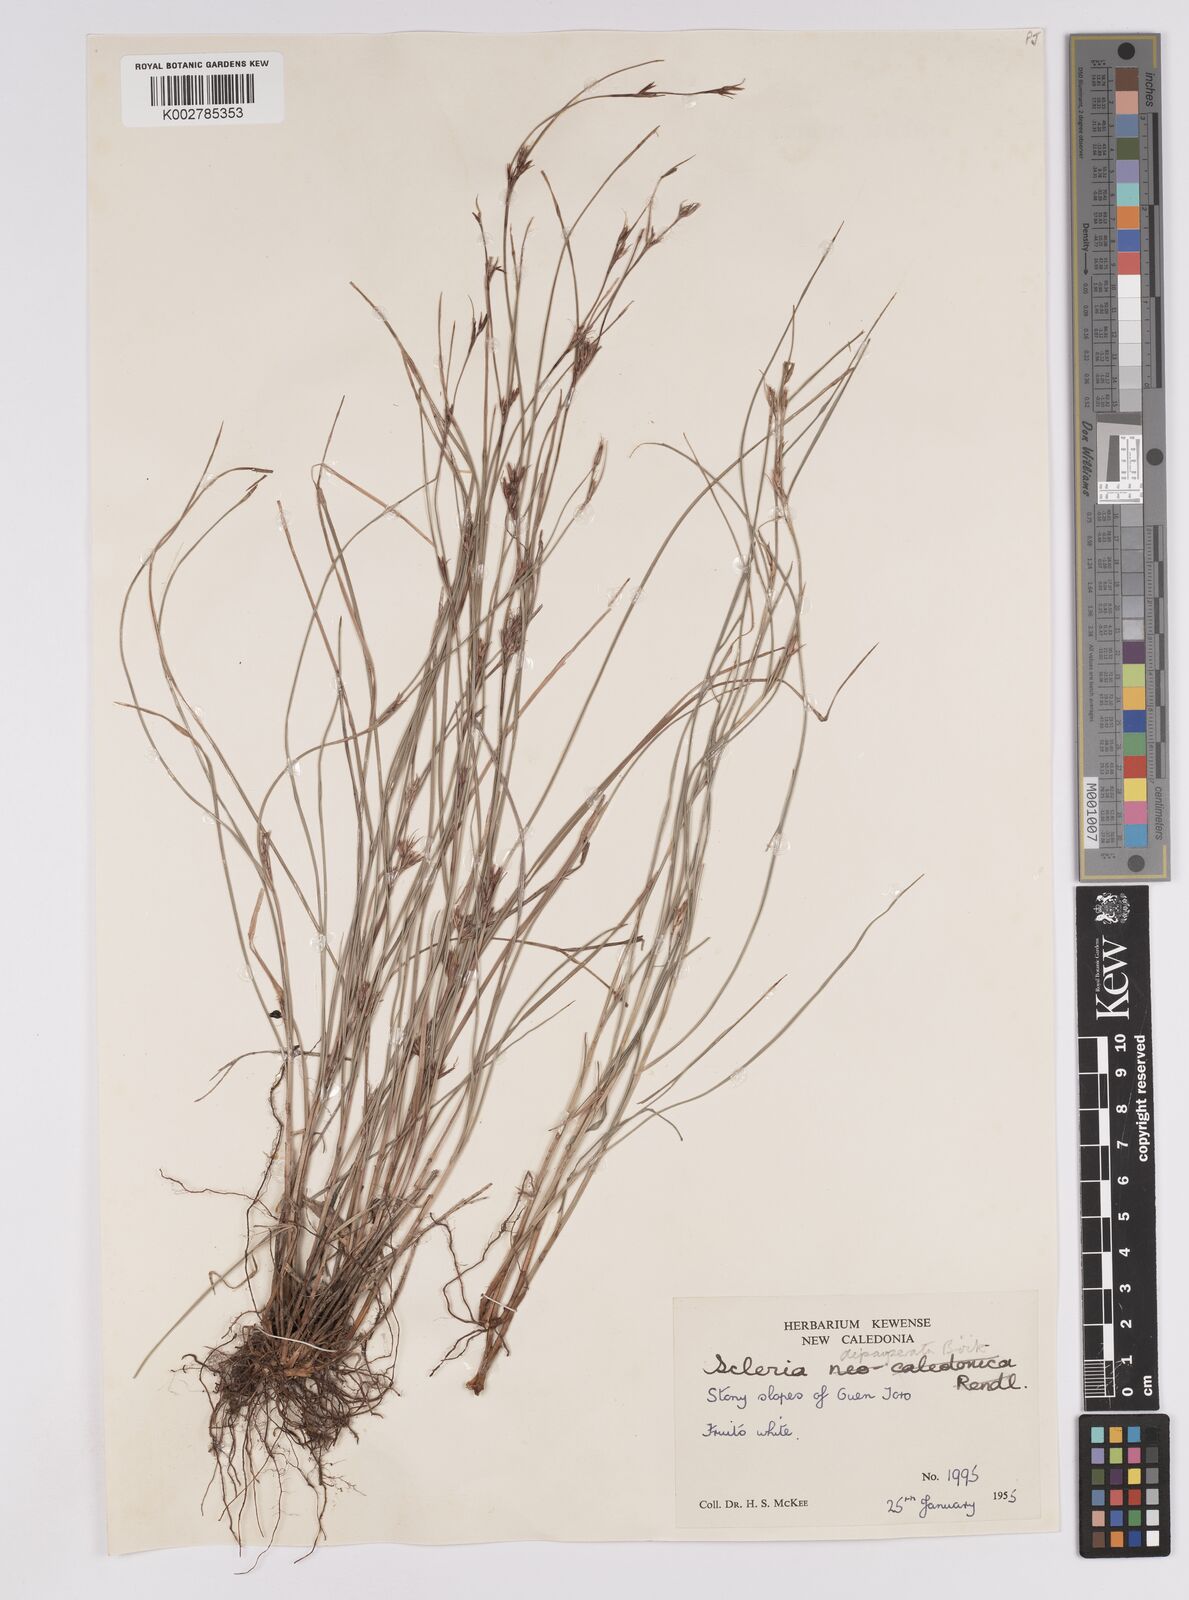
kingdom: Plantae
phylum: Tracheophyta
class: Liliopsida
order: Poales
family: Cyperaceae
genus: Scleria
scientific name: Scleria depauperata
